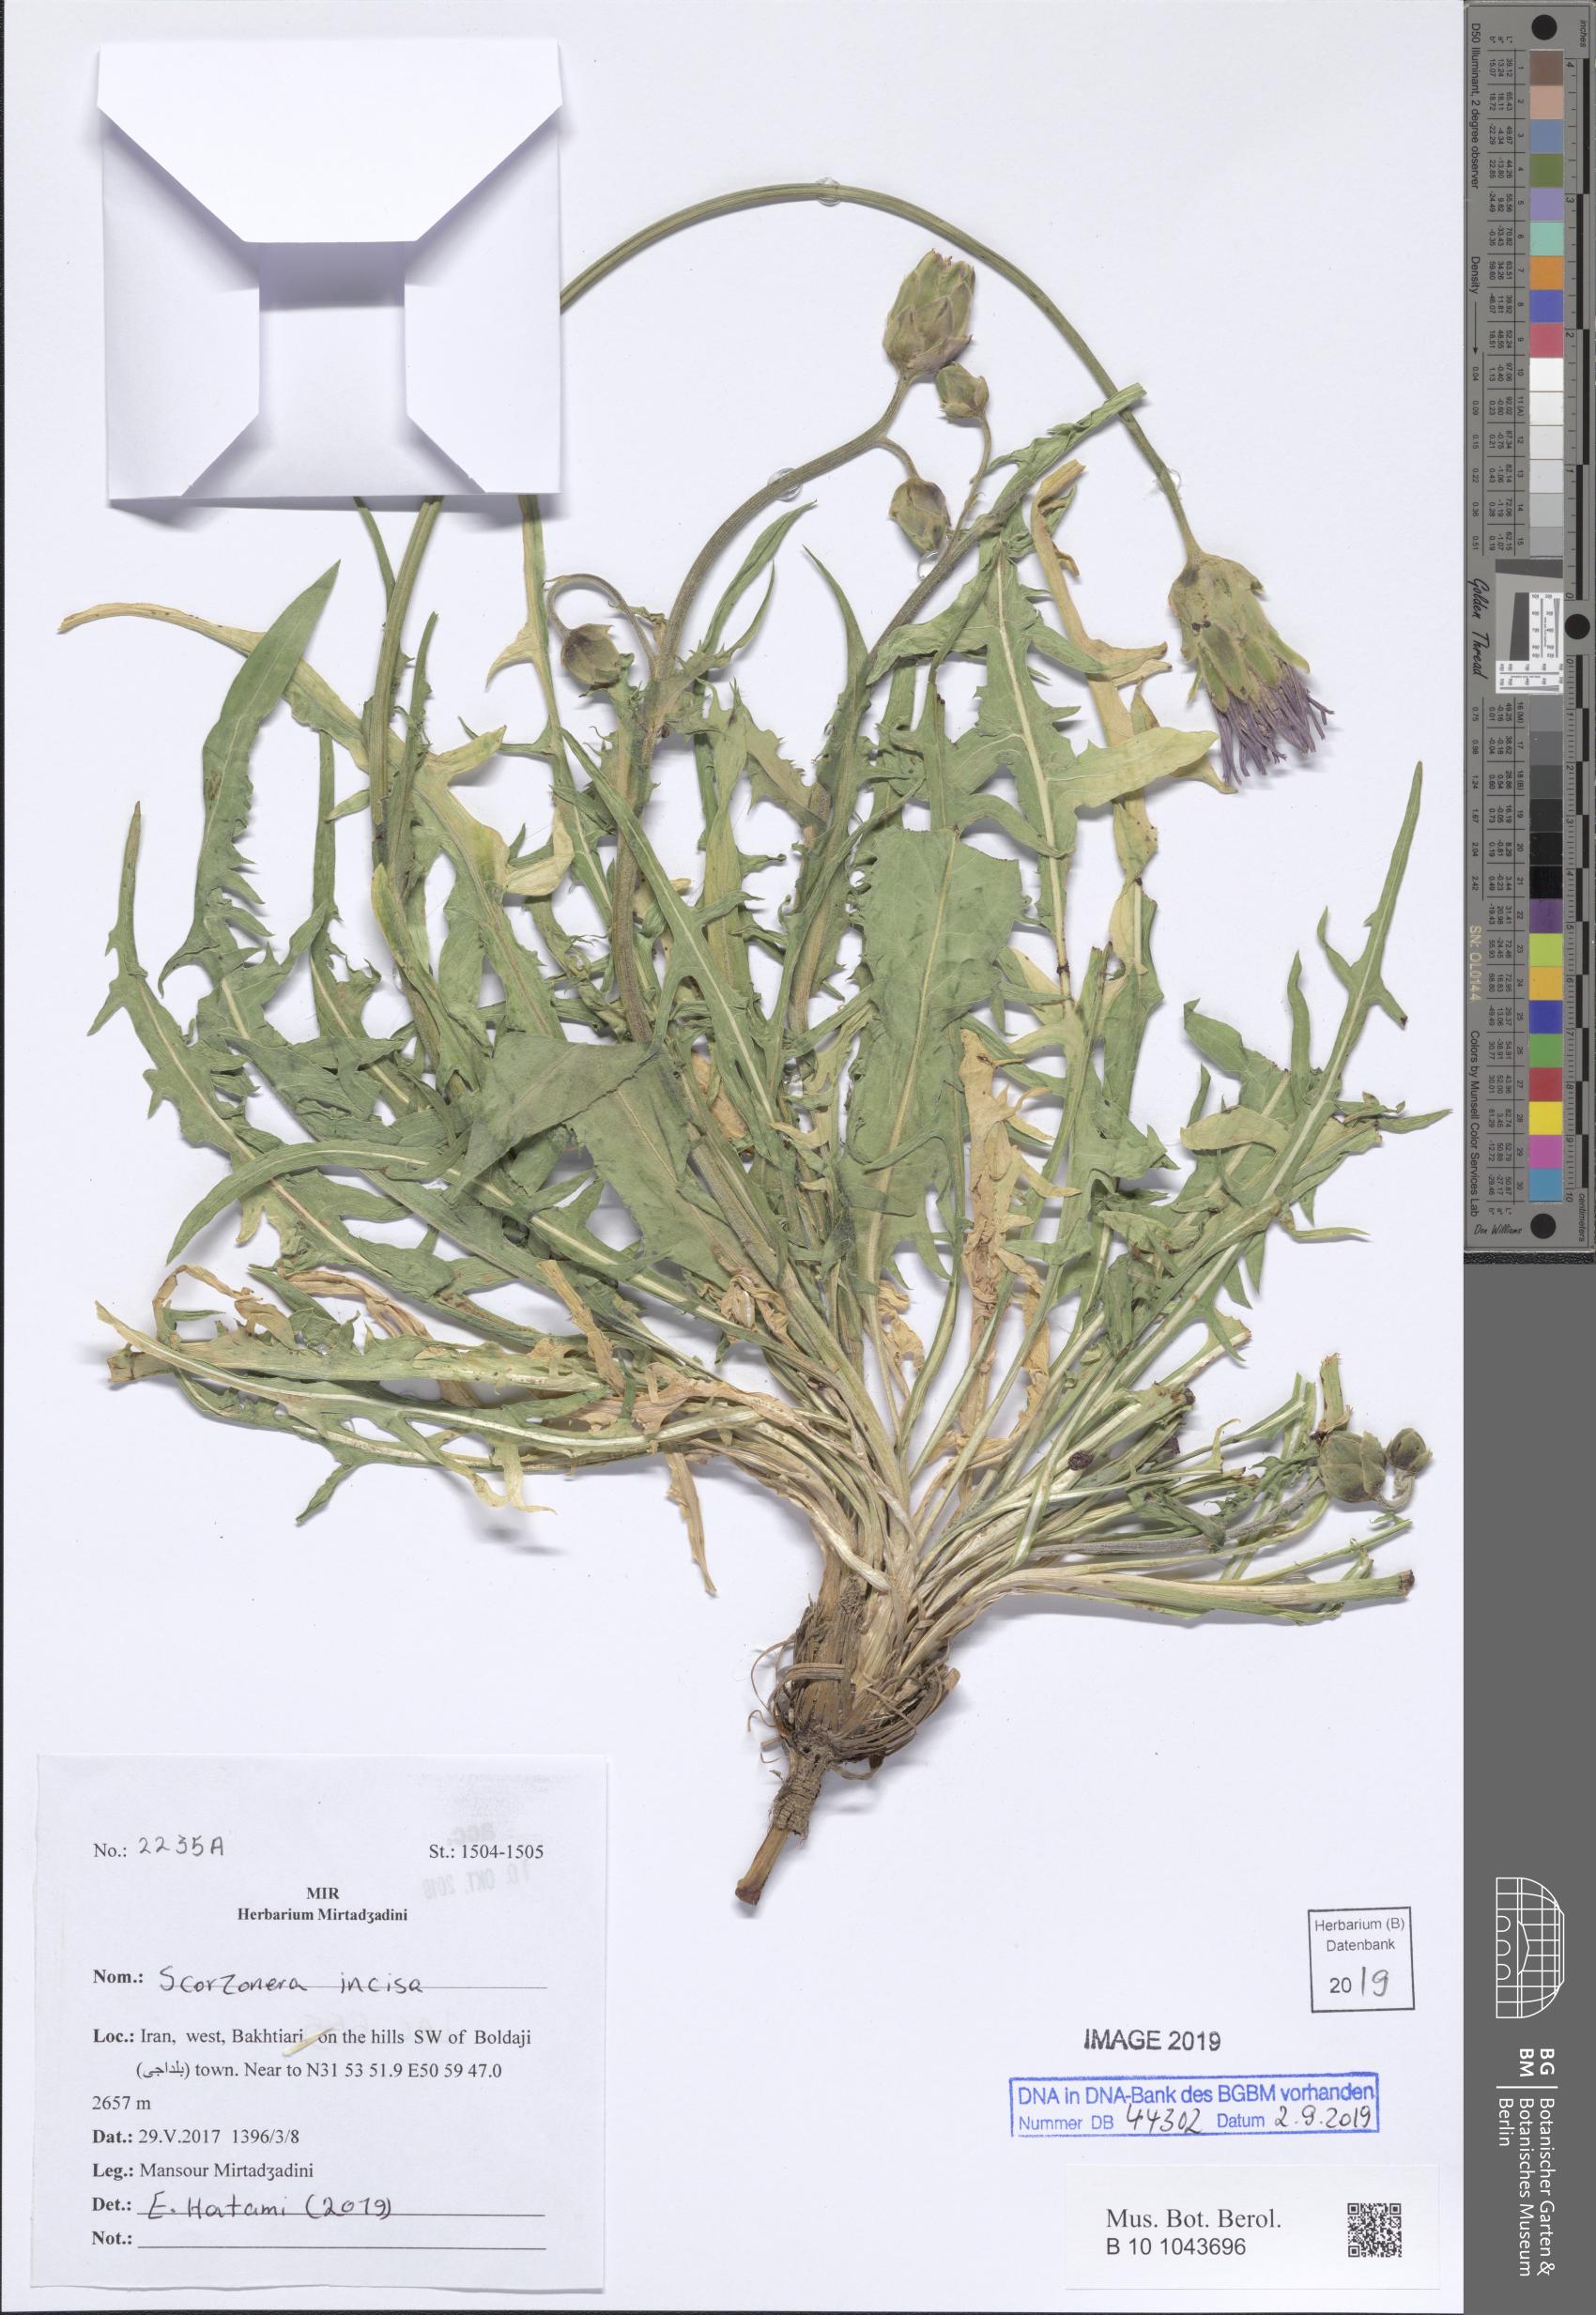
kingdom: Plantae
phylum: Tracheophyta
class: Magnoliopsida
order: Asterales
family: Asteraceae
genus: Aslia
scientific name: Aslia incisa
